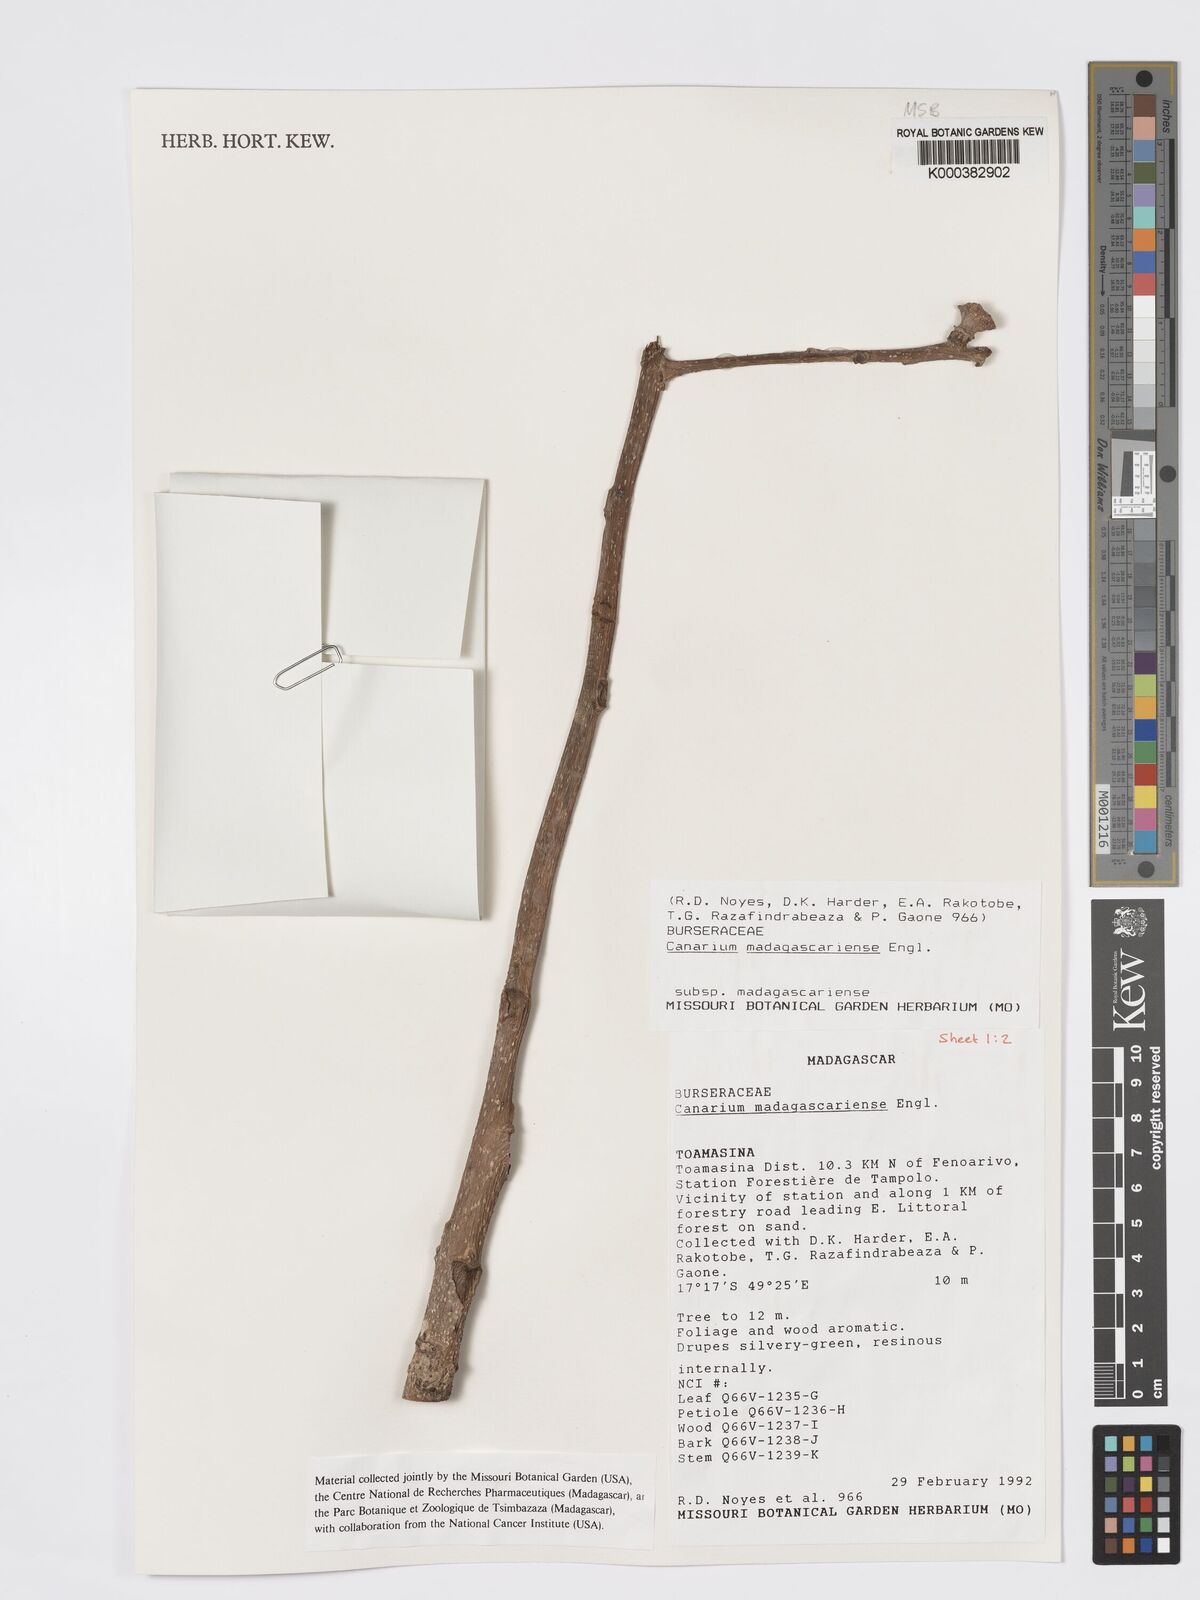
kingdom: Plantae
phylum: Tracheophyta
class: Magnoliopsida
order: Sapindales
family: Burseraceae
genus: Canarium
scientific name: Canarium madagascariense
